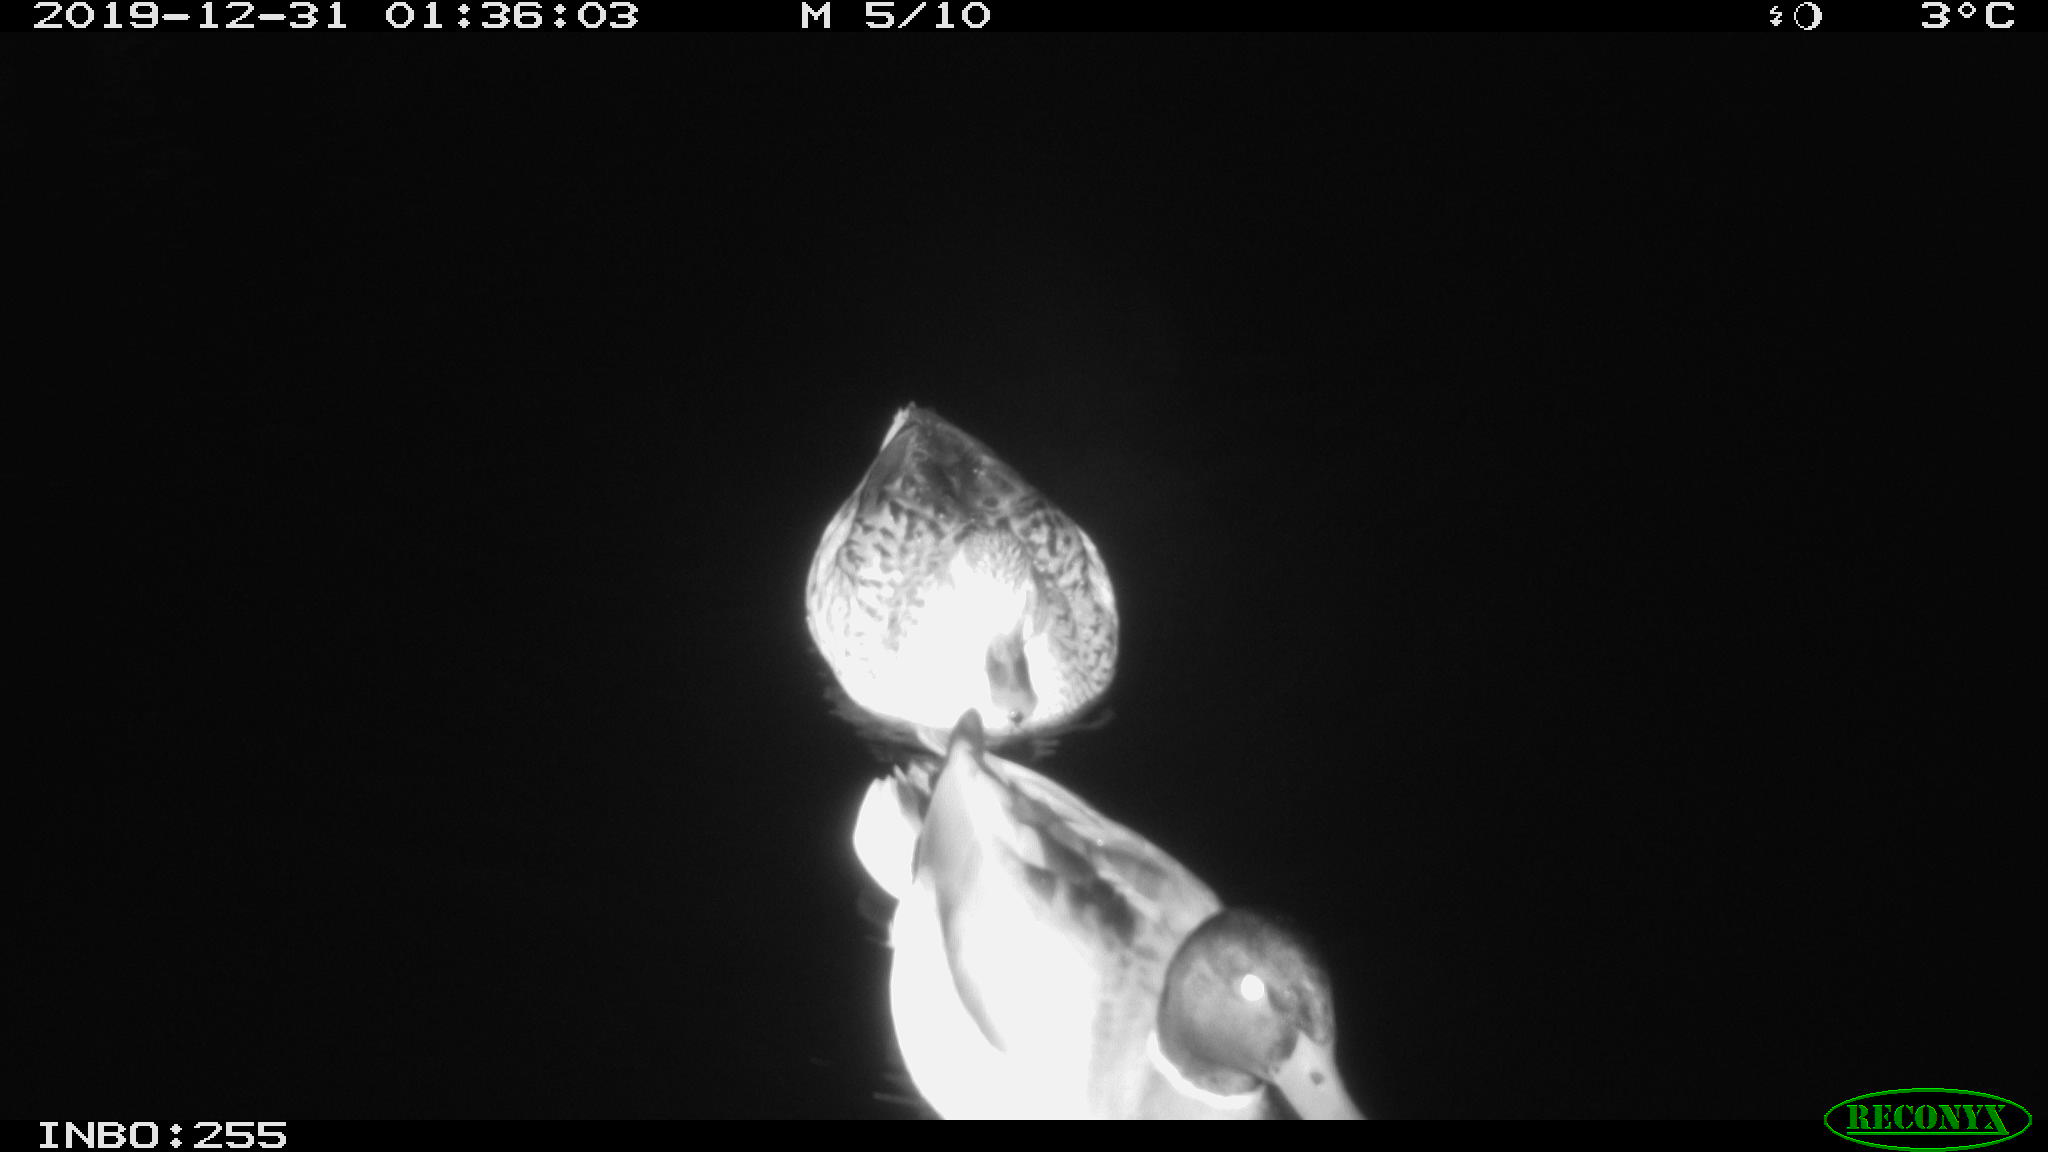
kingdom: Animalia
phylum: Chordata
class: Aves
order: Anseriformes
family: Anatidae
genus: Anas
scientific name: Anas platyrhynchos
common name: Mallard
